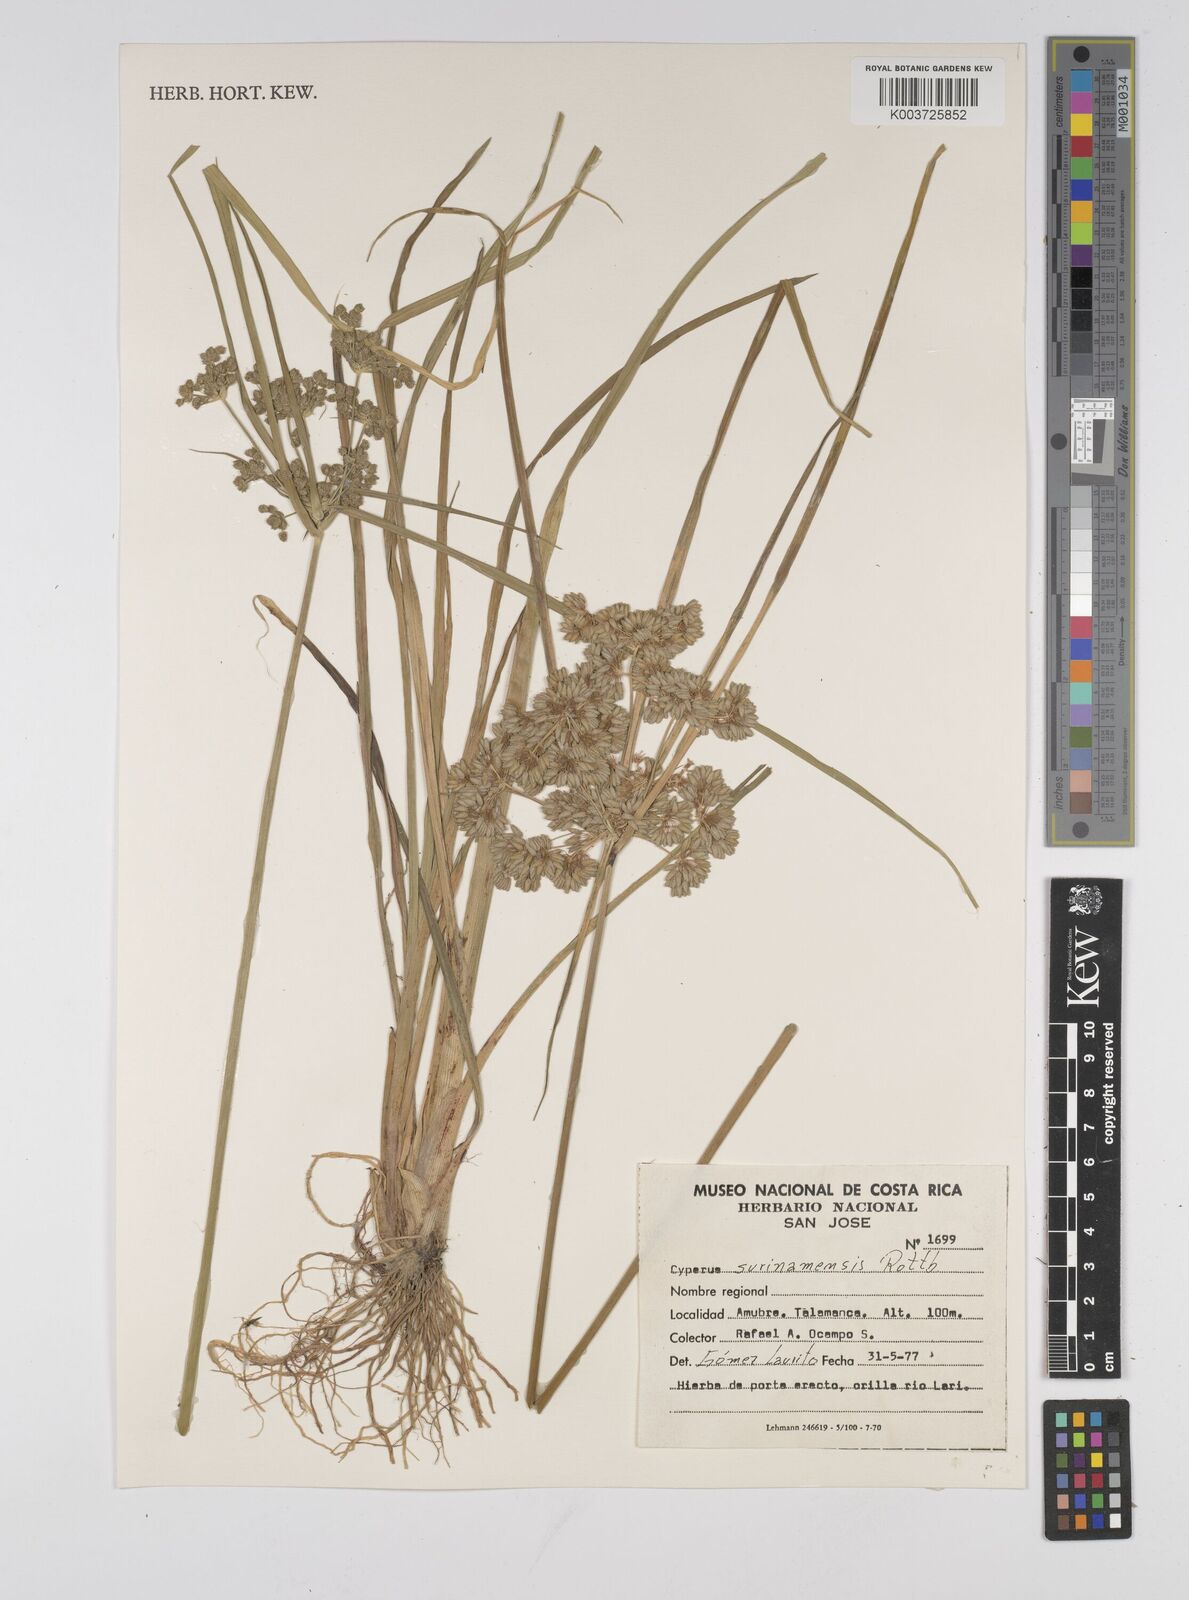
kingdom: Plantae
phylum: Tracheophyta
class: Liliopsida
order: Poales
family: Cyperaceae
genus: Cyperus
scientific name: Cyperus surinamensis
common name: Tropical flat sedge
